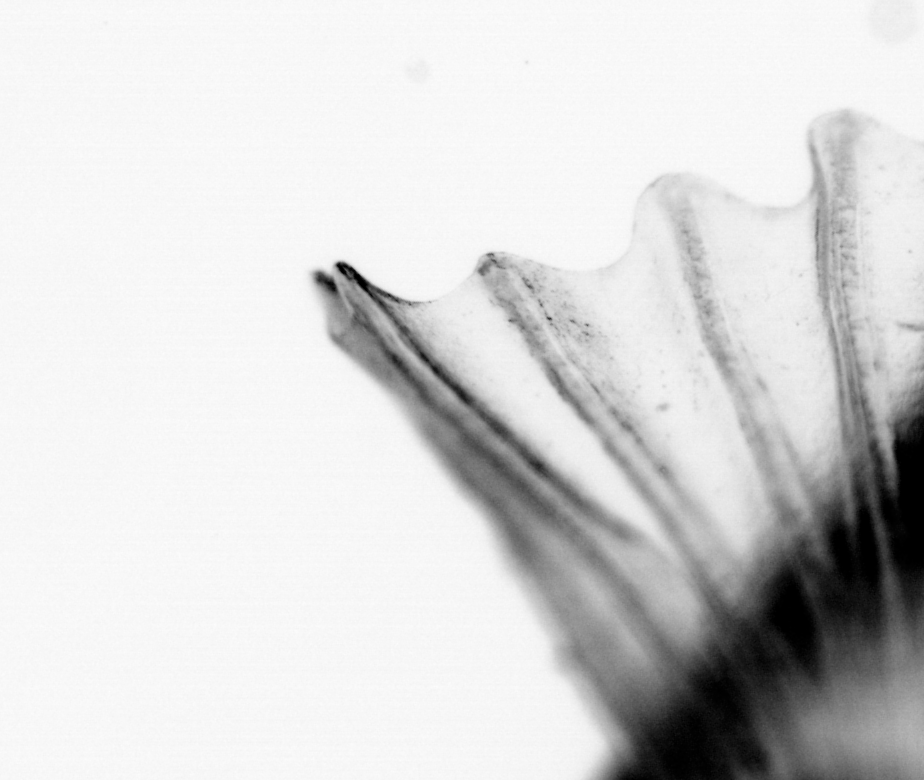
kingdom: Animalia
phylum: Chordata
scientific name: Chordata
